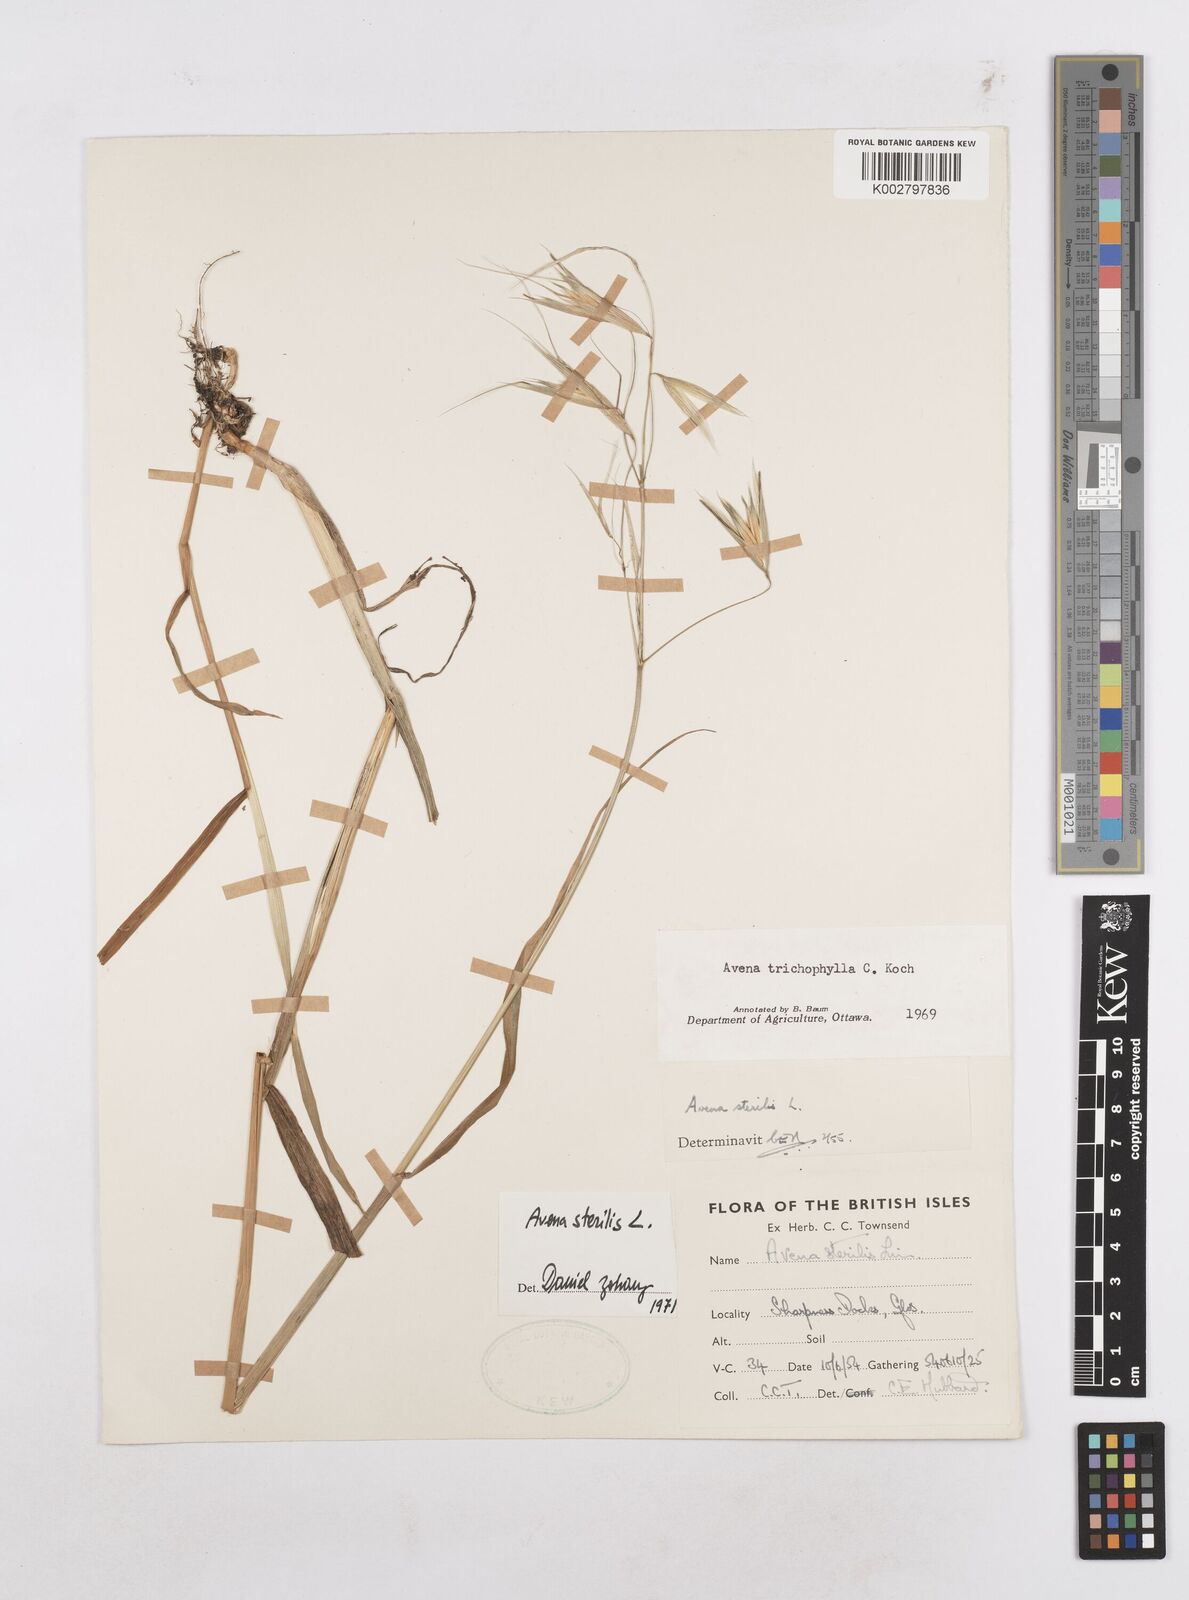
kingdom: Plantae
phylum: Tracheophyta
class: Liliopsida
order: Poales
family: Poaceae
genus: Avena
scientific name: Avena sterilis
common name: Animated oat
